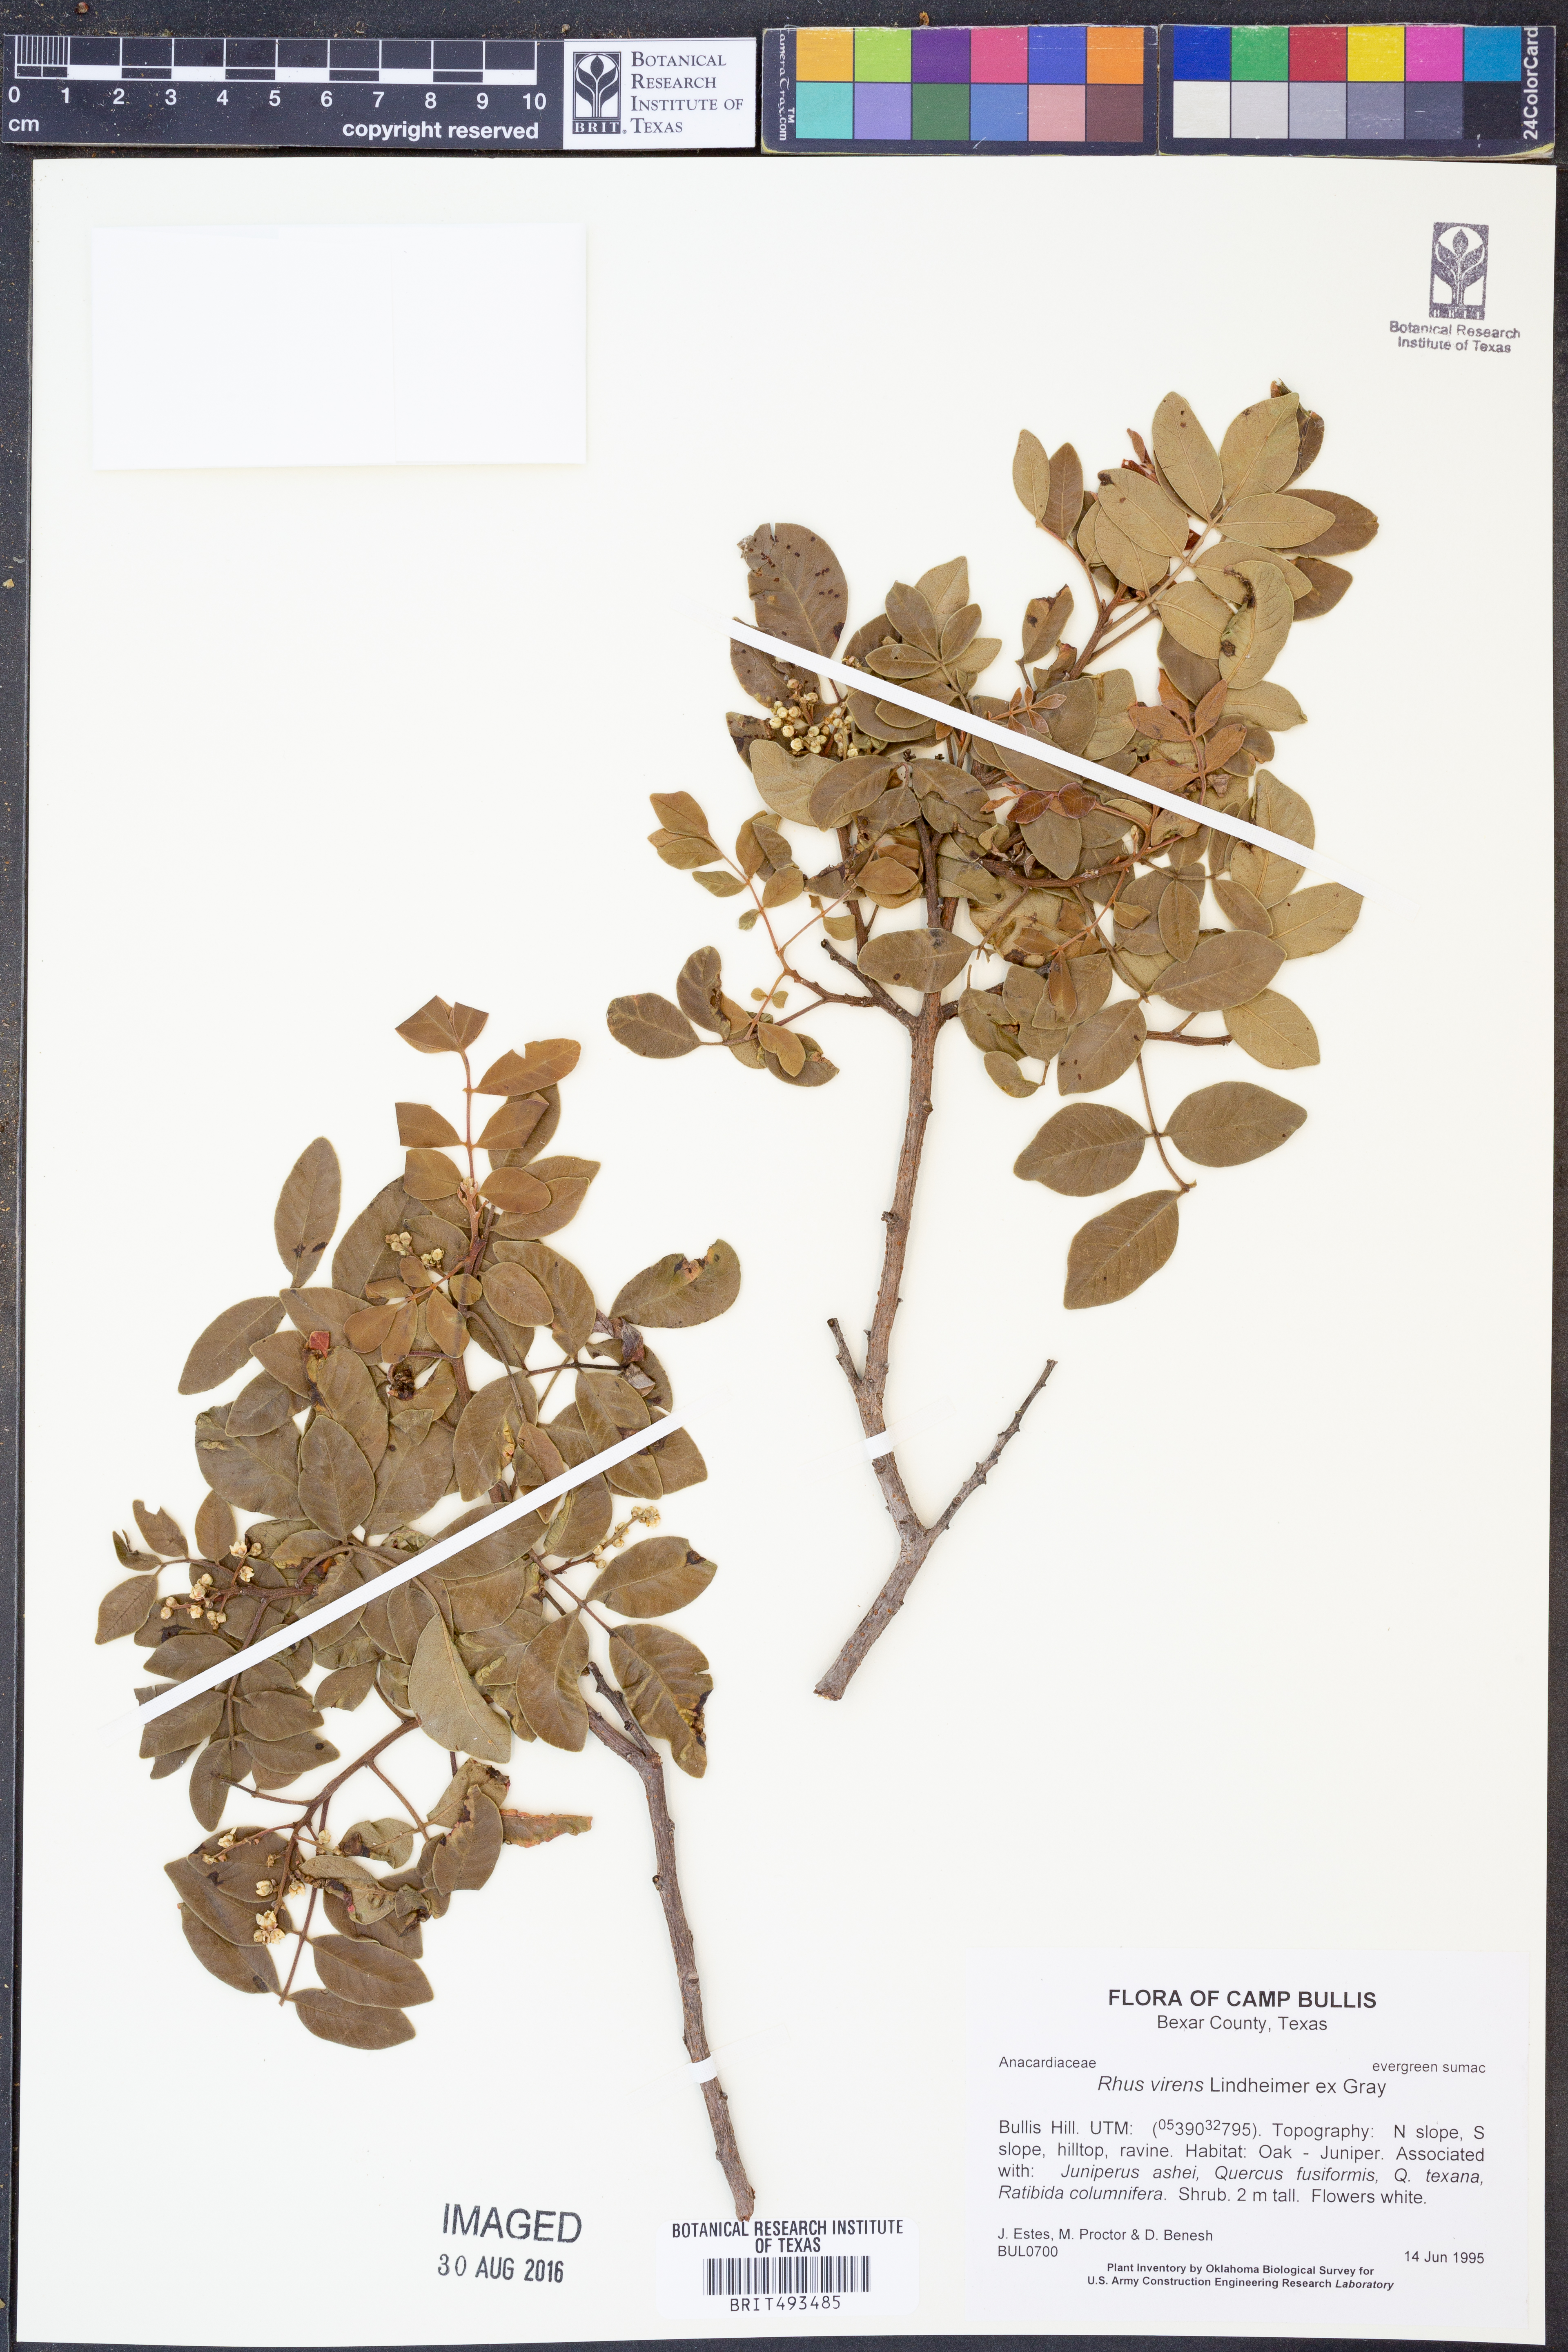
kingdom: Plantae
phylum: Tracheophyta
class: Magnoliopsida
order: Sapindales
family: Anacardiaceae
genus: Rhus
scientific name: Rhus virens
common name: Evergreen sumac
